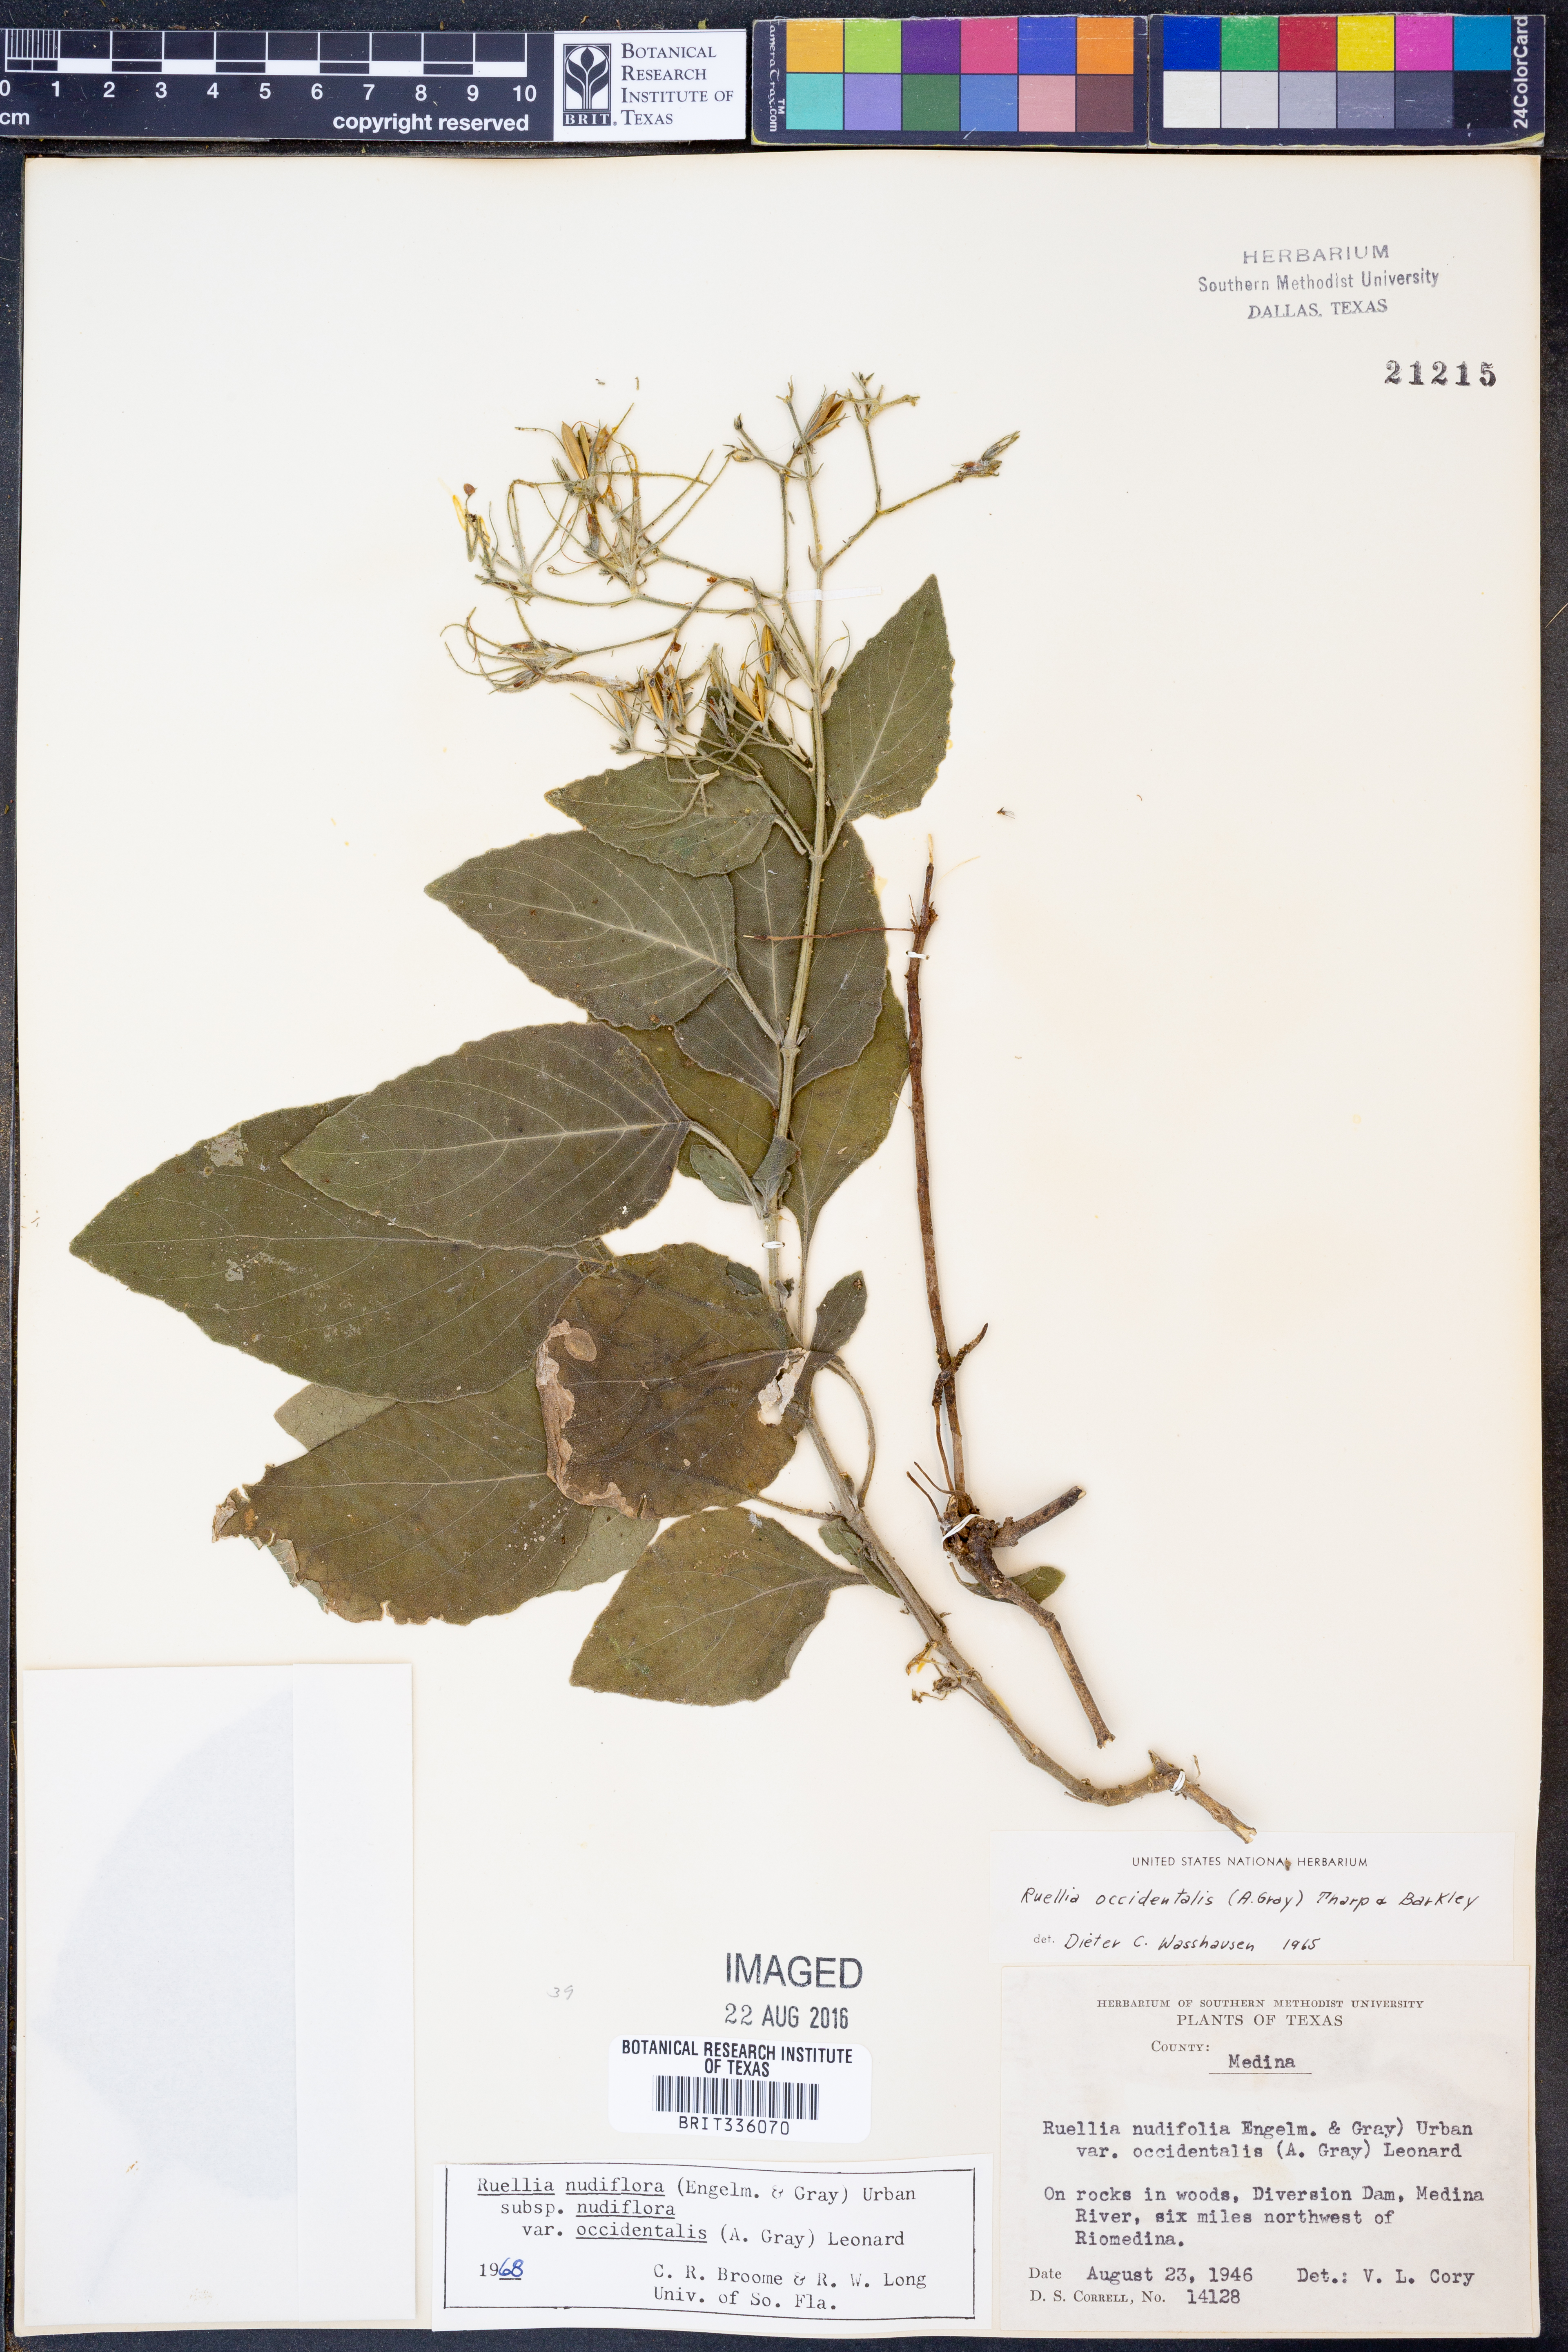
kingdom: Plantae
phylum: Tracheophyta
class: Magnoliopsida
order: Lamiales
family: Acanthaceae
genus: Ruellia
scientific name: Ruellia ciliatiflora
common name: Hairyflower wild petunia
